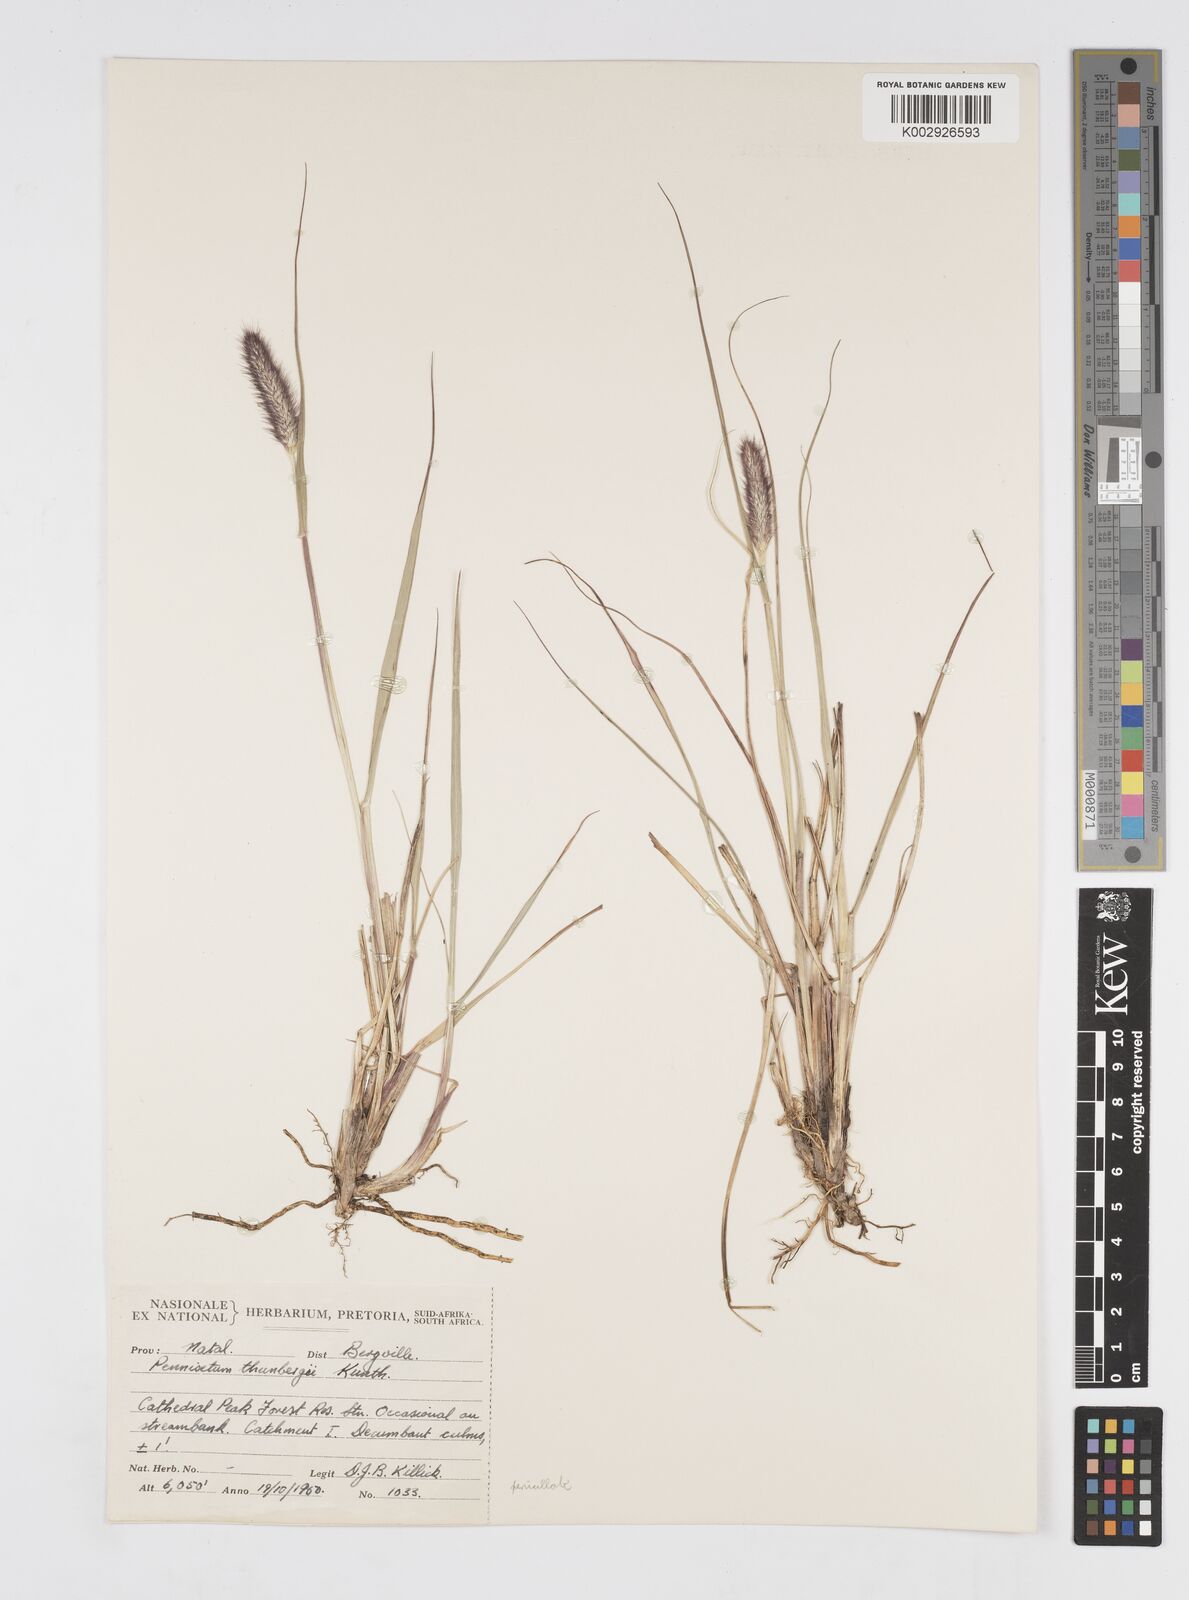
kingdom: Plantae
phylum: Tracheophyta
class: Liliopsida
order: Poales
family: Poaceae
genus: Cenchrus
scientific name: Cenchrus geniculatus
